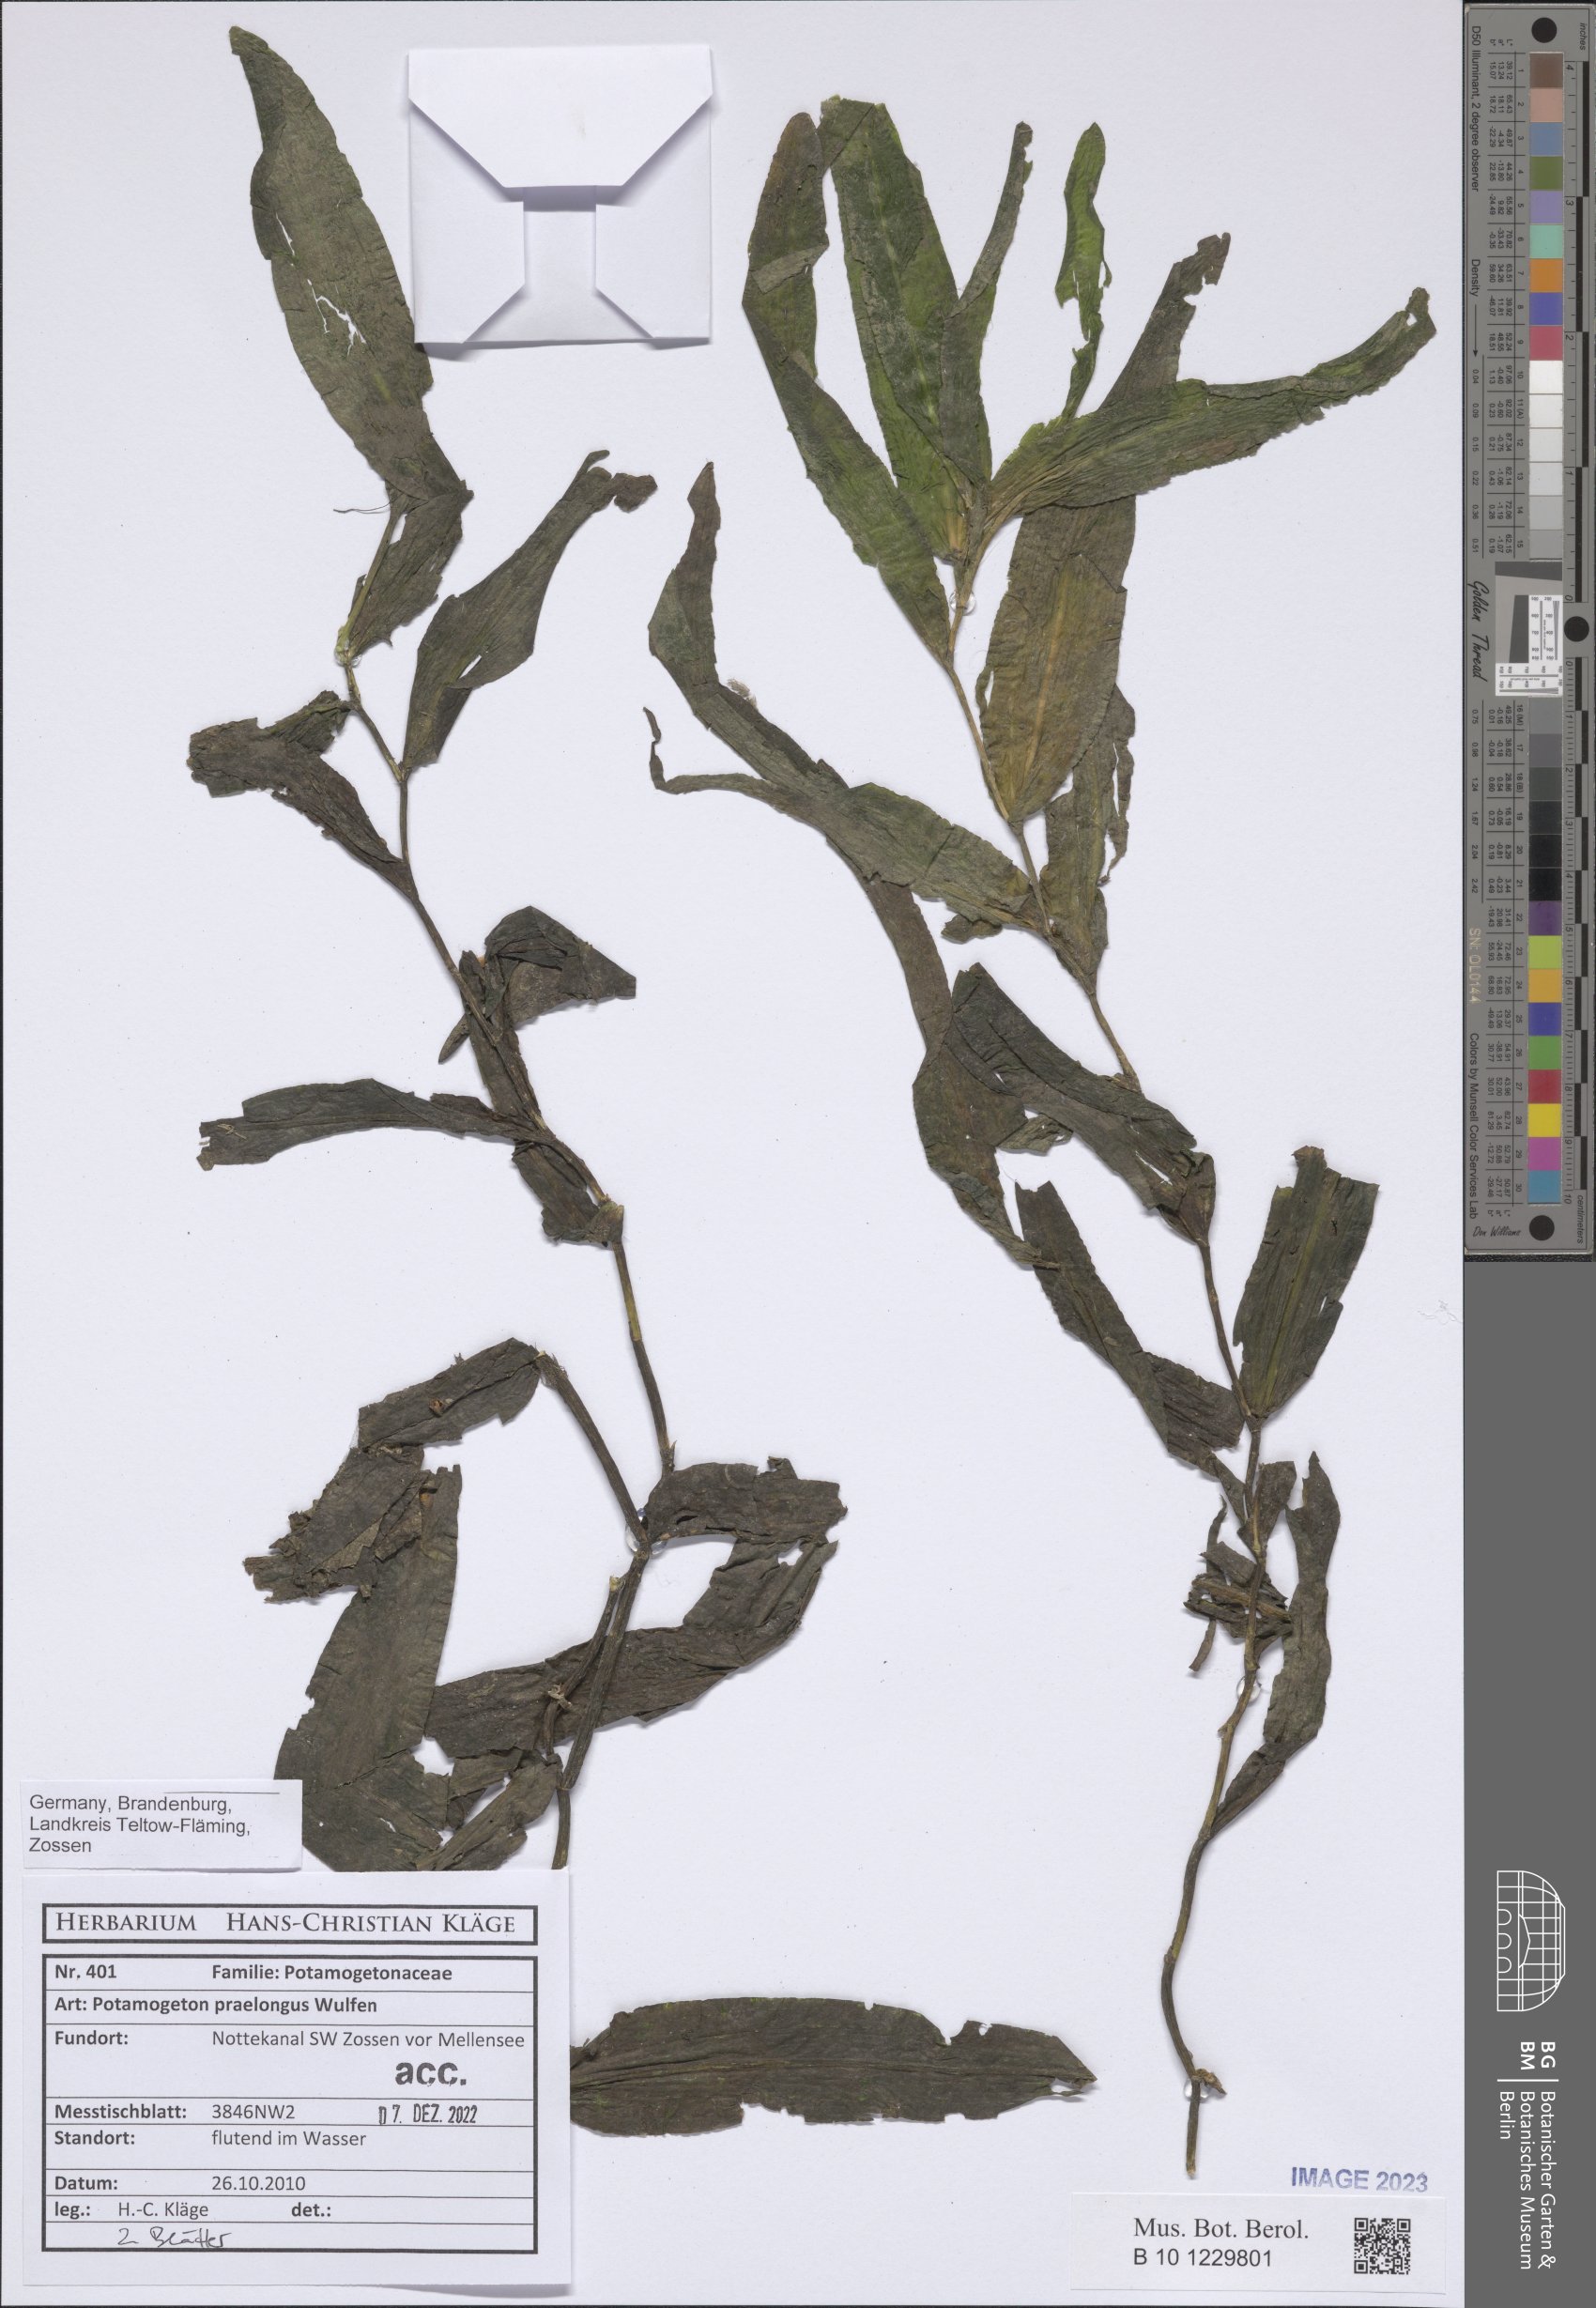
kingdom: Plantae
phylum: Tracheophyta
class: Liliopsida
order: Alismatales
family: Potamogetonaceae
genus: Potamogeton
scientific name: Potamogeton praelongus
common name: Long-stalked pondweed
